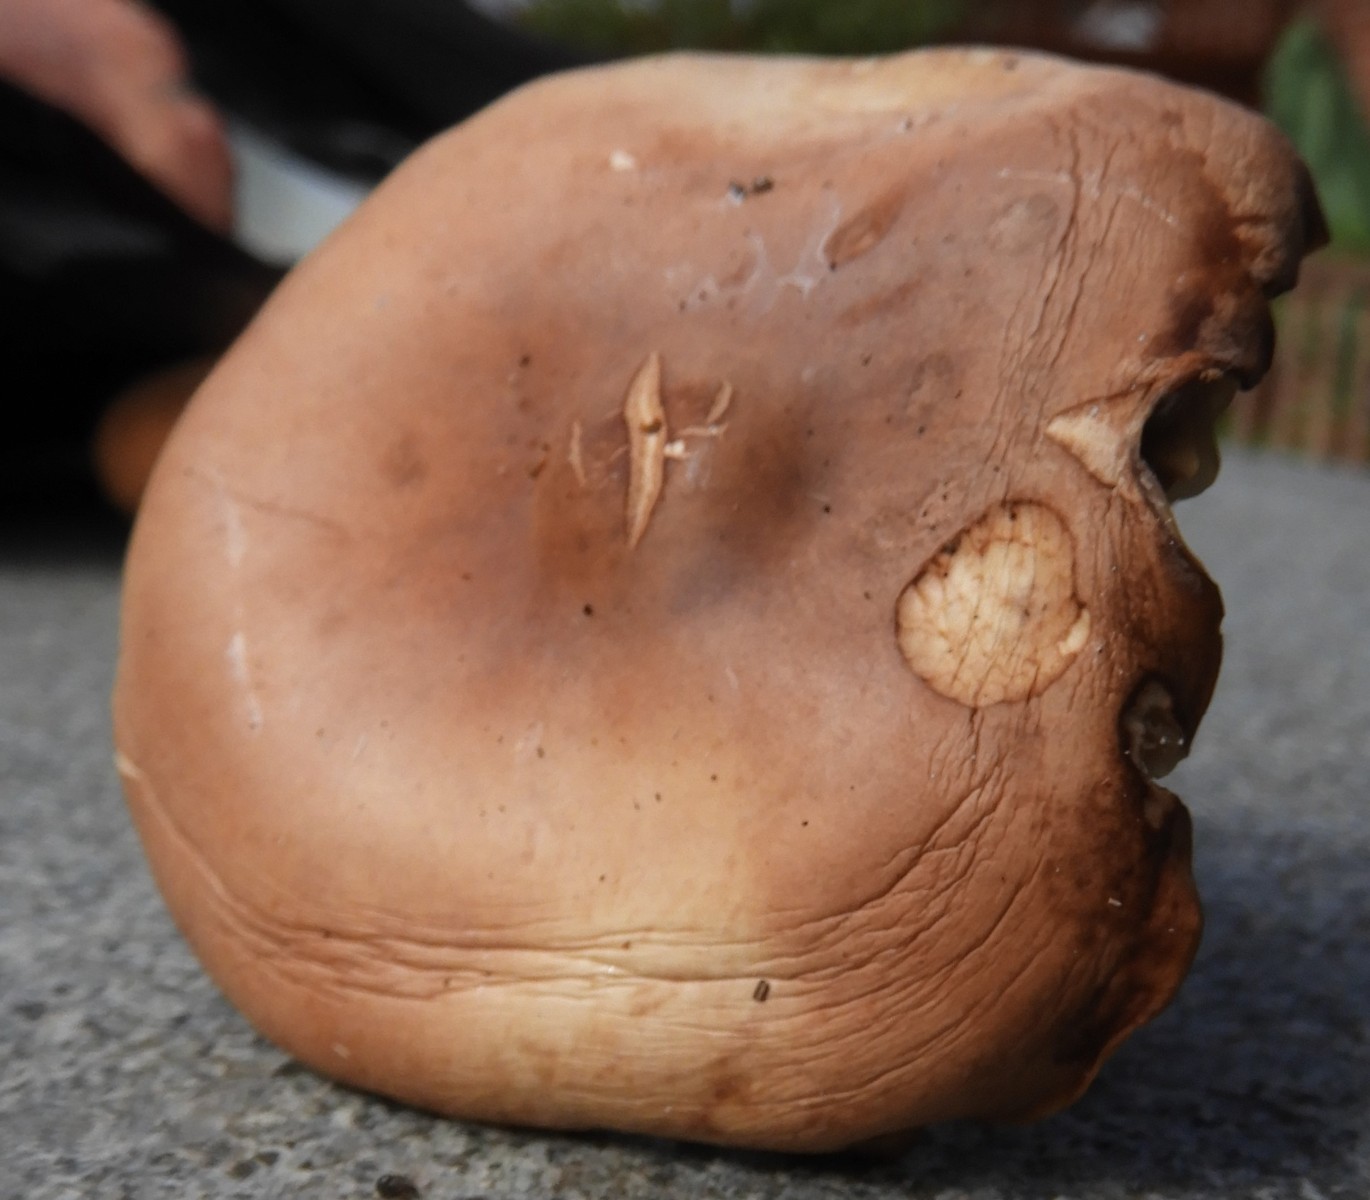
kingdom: Fungi
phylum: Basidiomycota
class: Agaricomycetes
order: Agaricales
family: Omphalotaceae
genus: Gymnopus
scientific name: Gymnopus fusipes
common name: tenstokket fladhat
